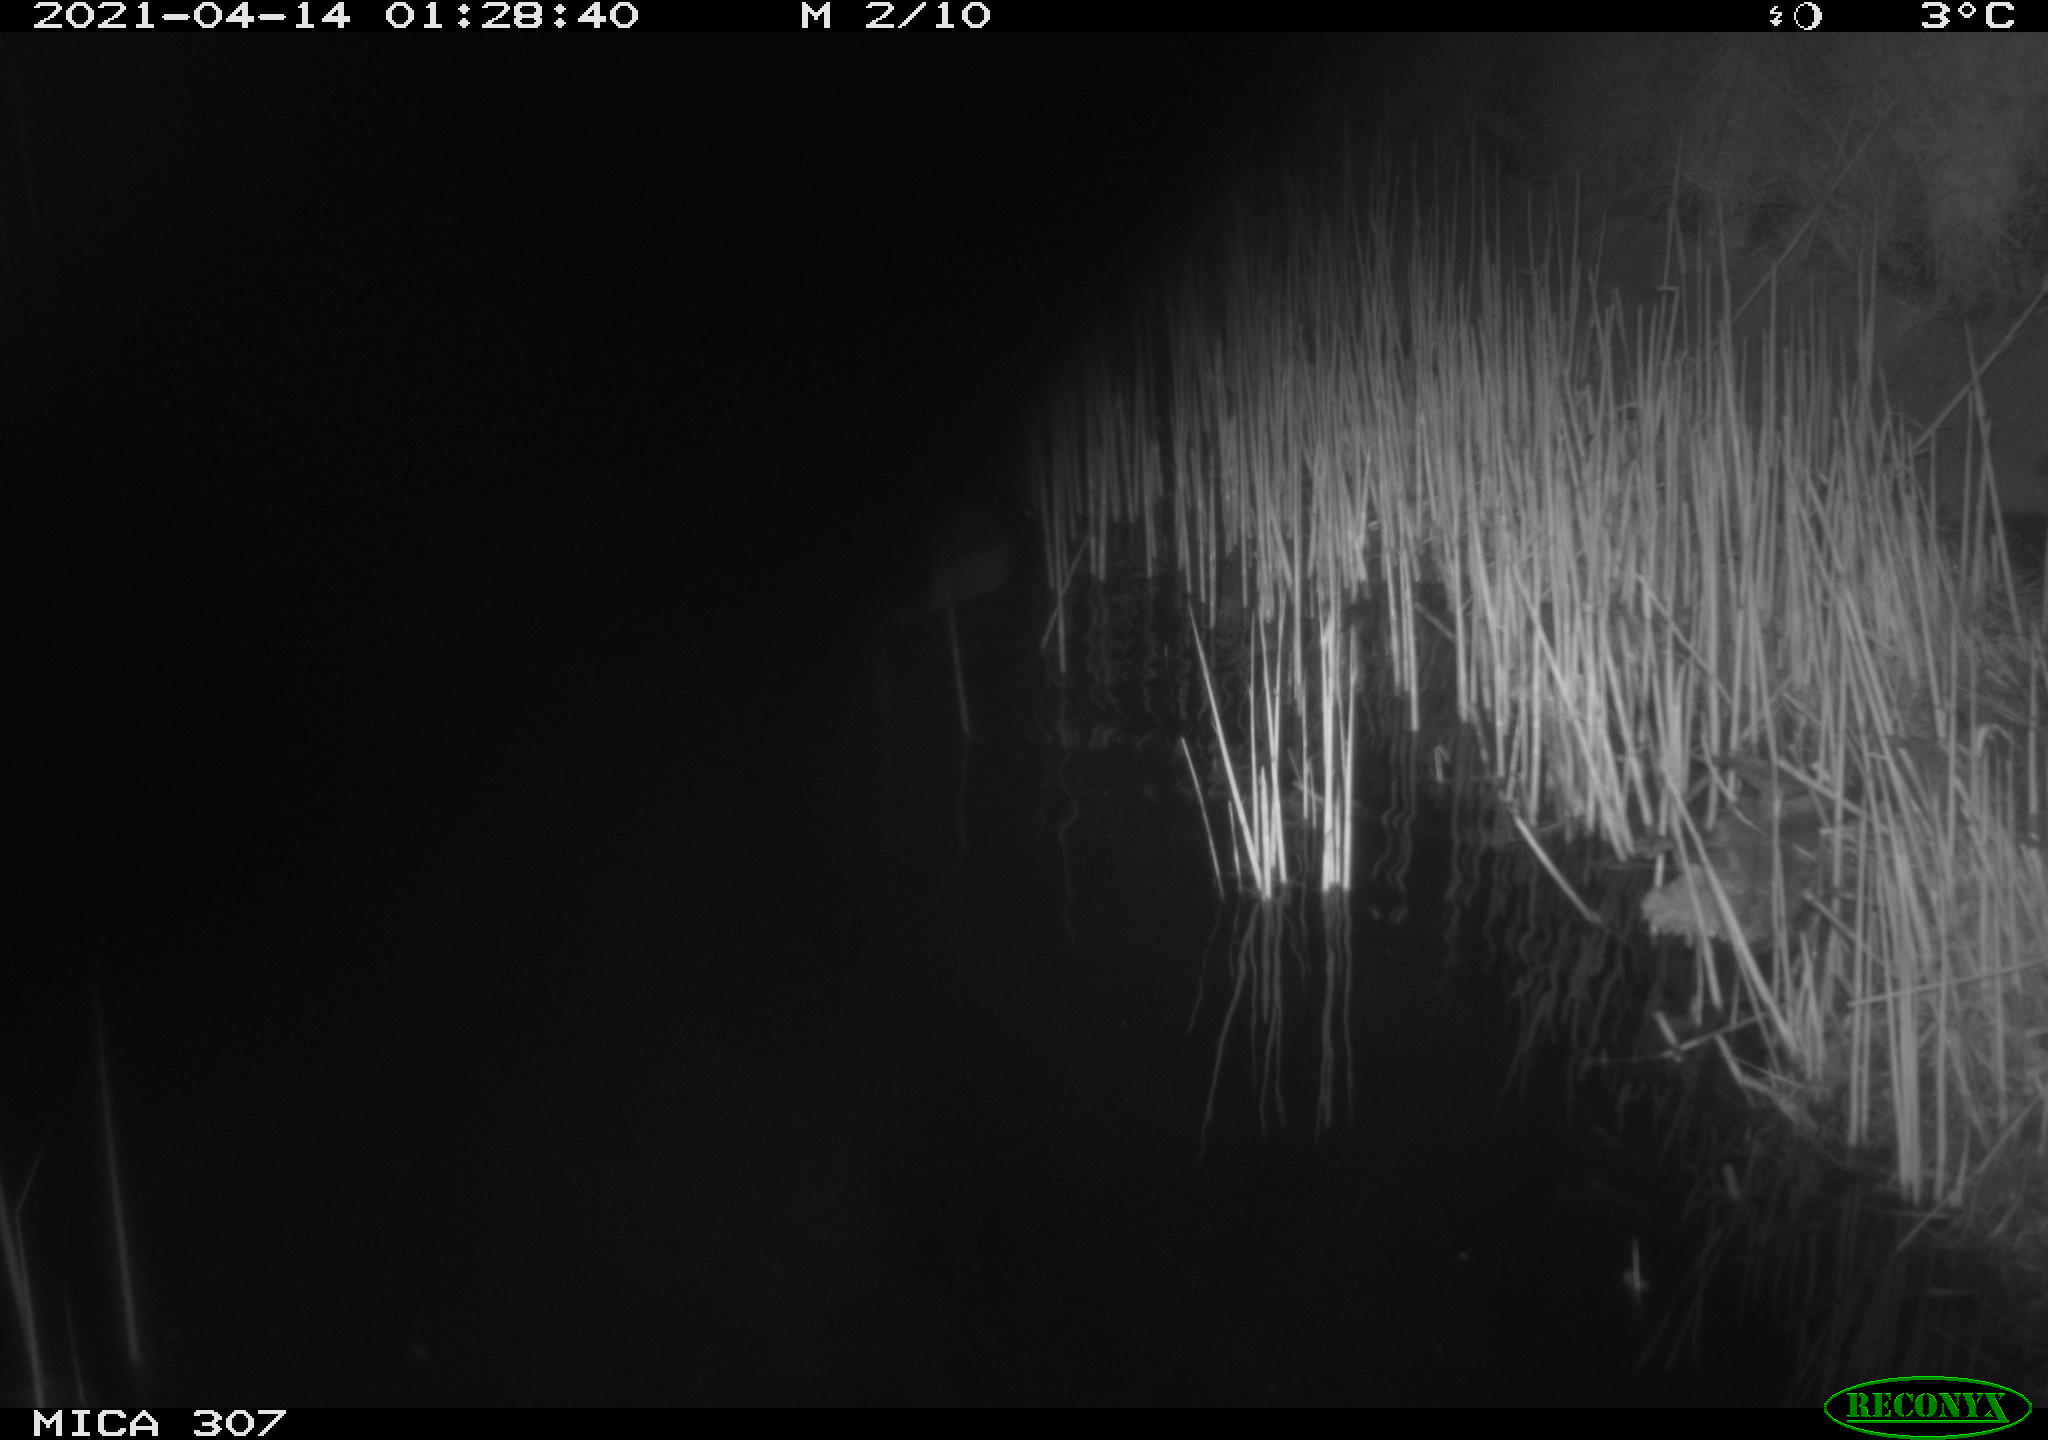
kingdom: Animalia
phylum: Chordata
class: Aves
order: Anseriformes
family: Anatidae
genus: Anas
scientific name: Anas platyrhynchos
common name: Mallard
